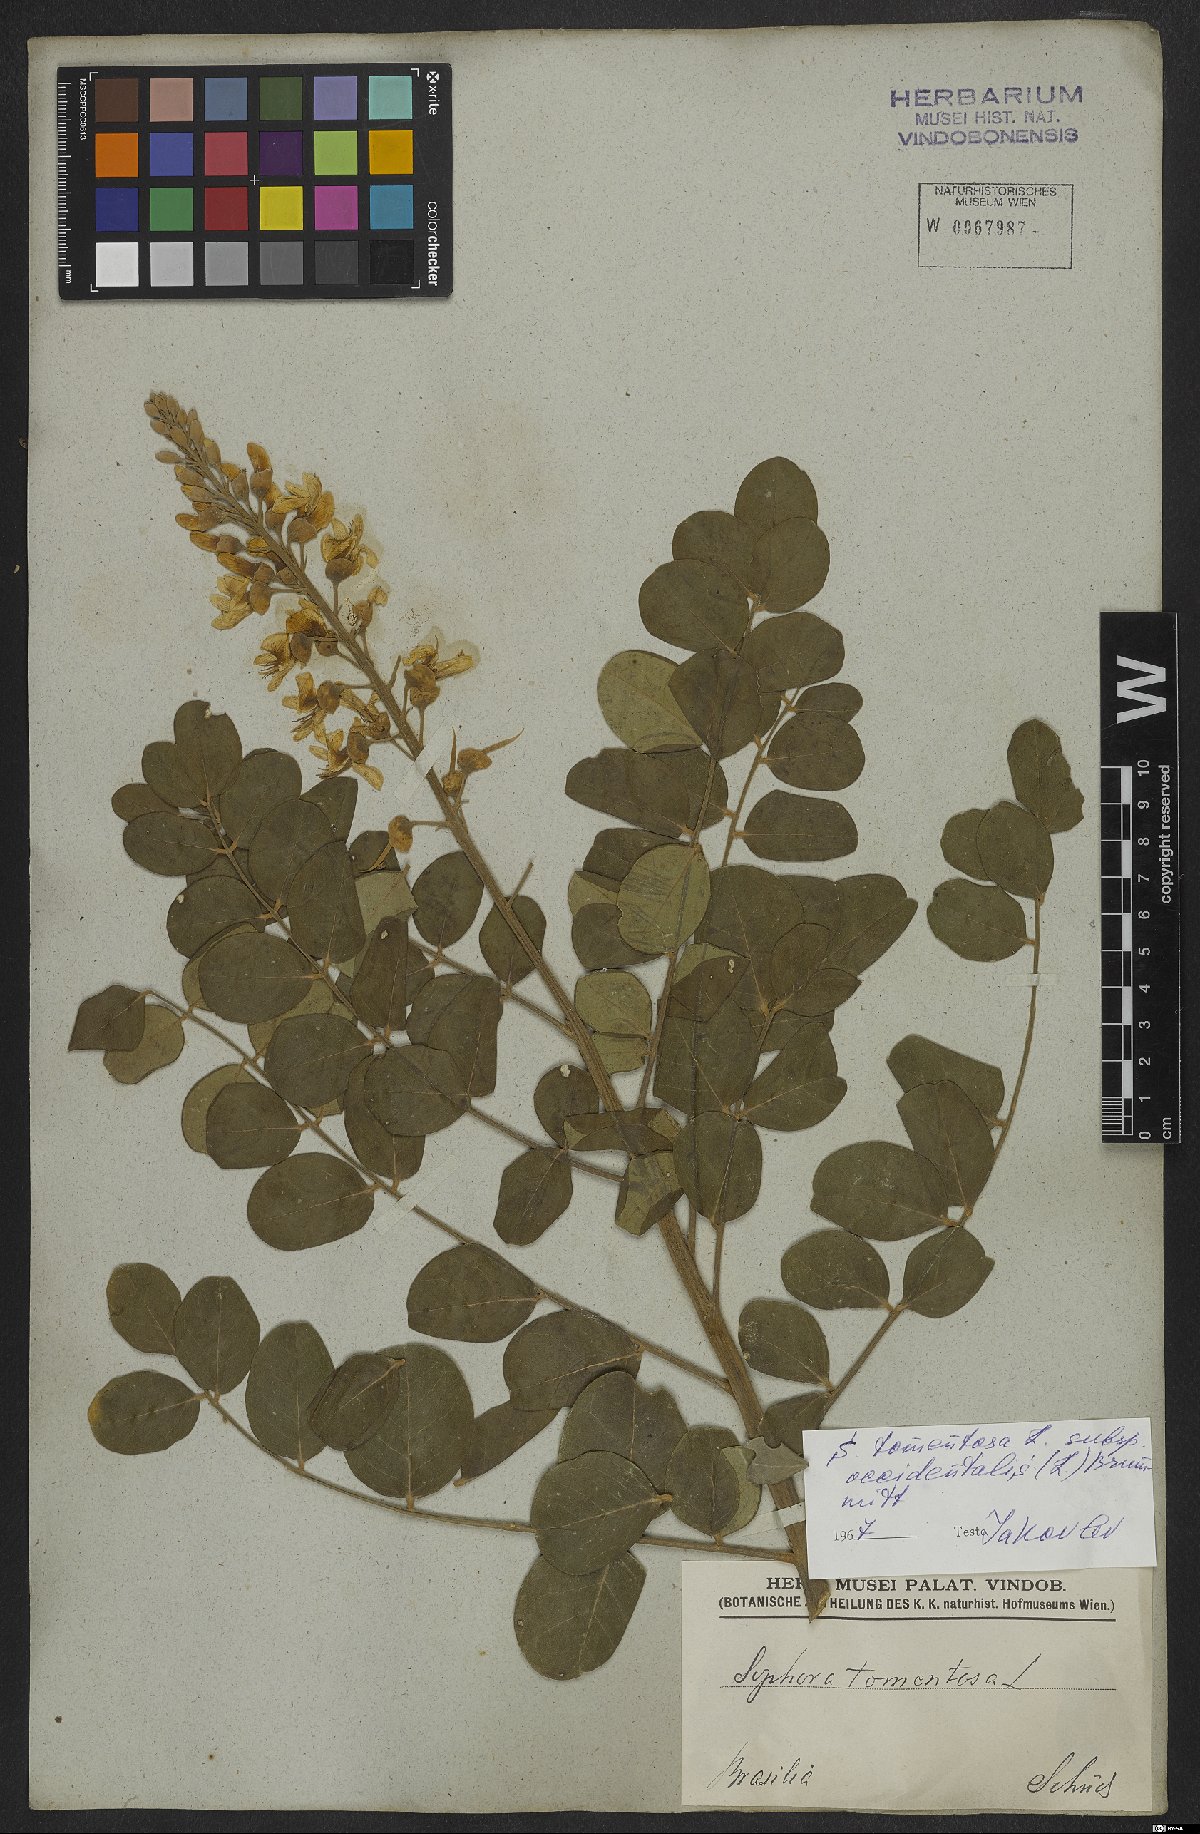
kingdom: Plantae
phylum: Tracheophyta
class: Magnoliopsida
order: Fabales
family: Fabaceae
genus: Sophora
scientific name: Sophora tomentosa
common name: Yellow necklacepod
